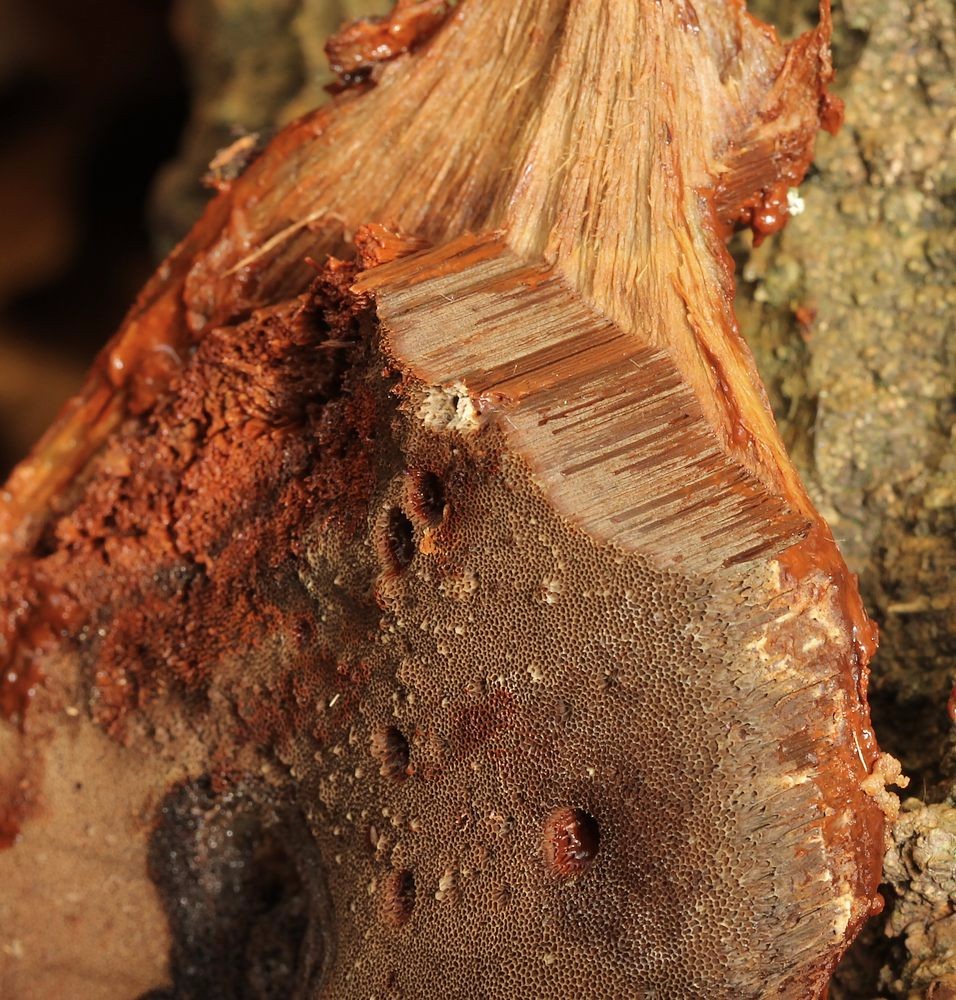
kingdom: Fungi
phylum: Basidiomycota
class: Agaricomycetes
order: Hymenochaetales
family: Hymenochaetaceae
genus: Inonotus
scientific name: Inonotus cuticularis
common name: kroghåret spejlporesvamp
